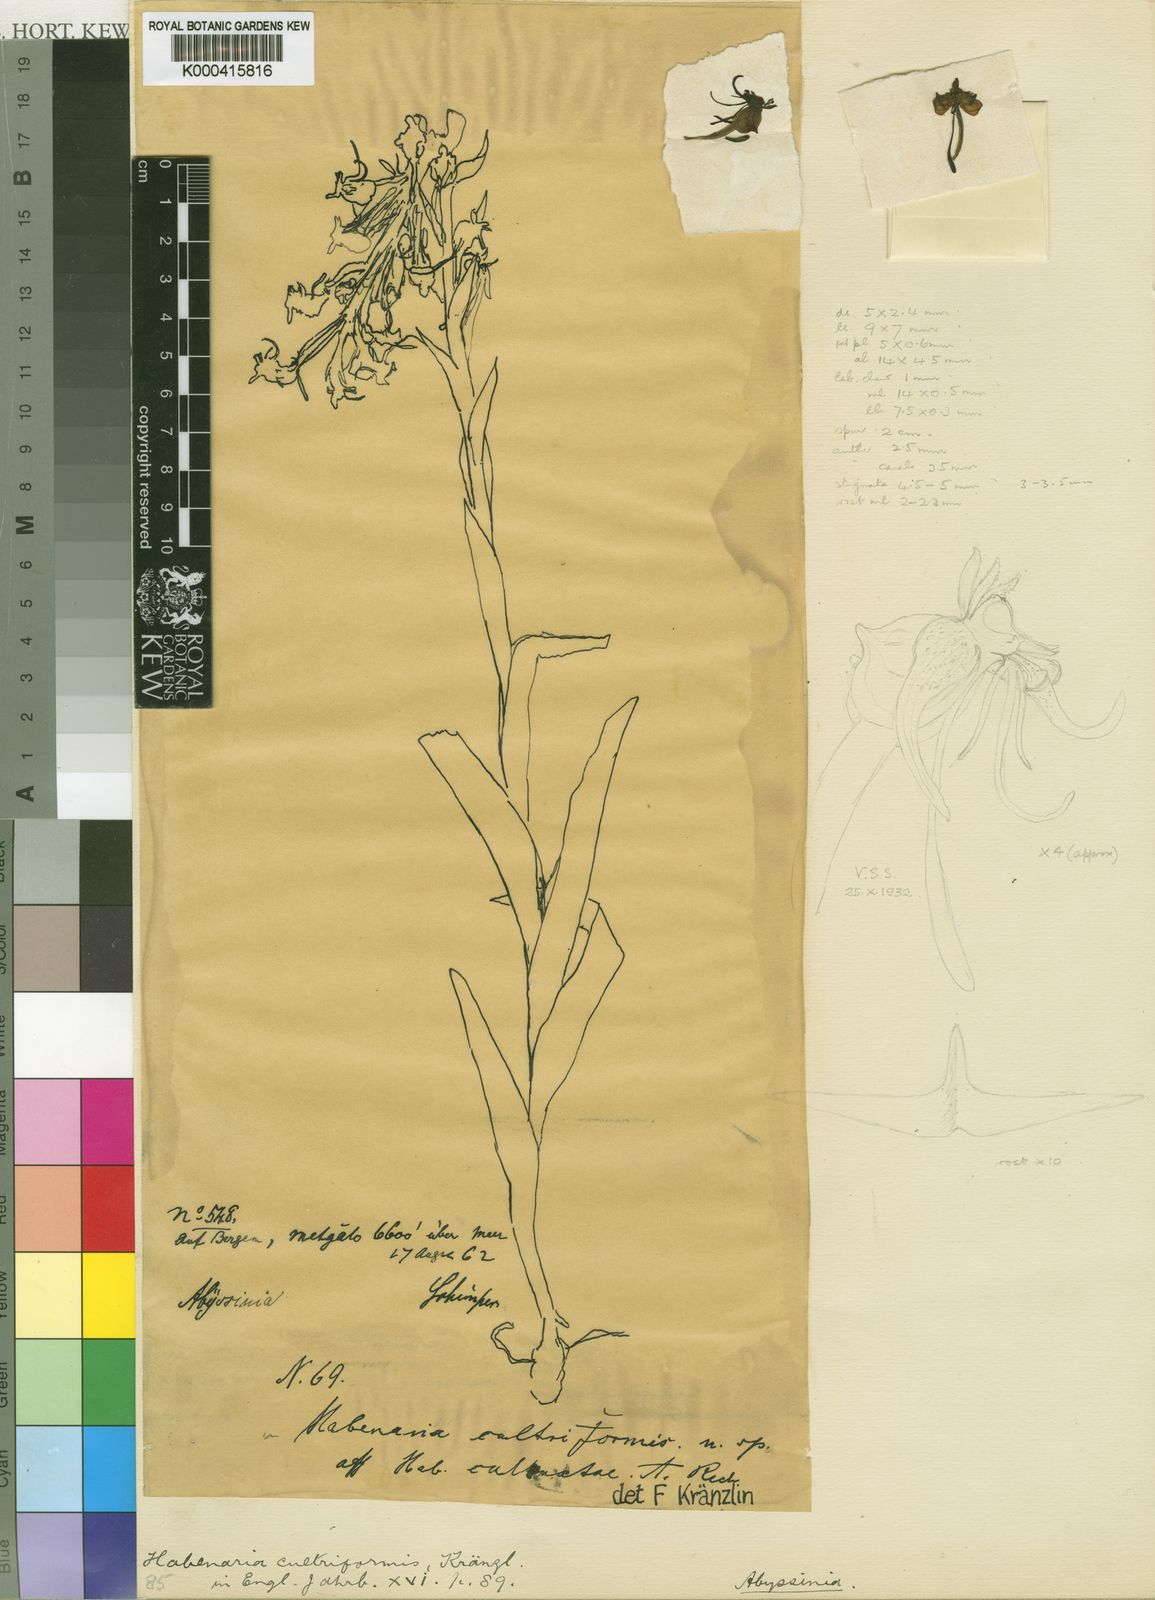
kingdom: Plantae
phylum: Tracheophyta
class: Liliopsida
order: Asparagales
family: Orchidaceae
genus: Habenaria
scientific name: Habenaria cultriformis
